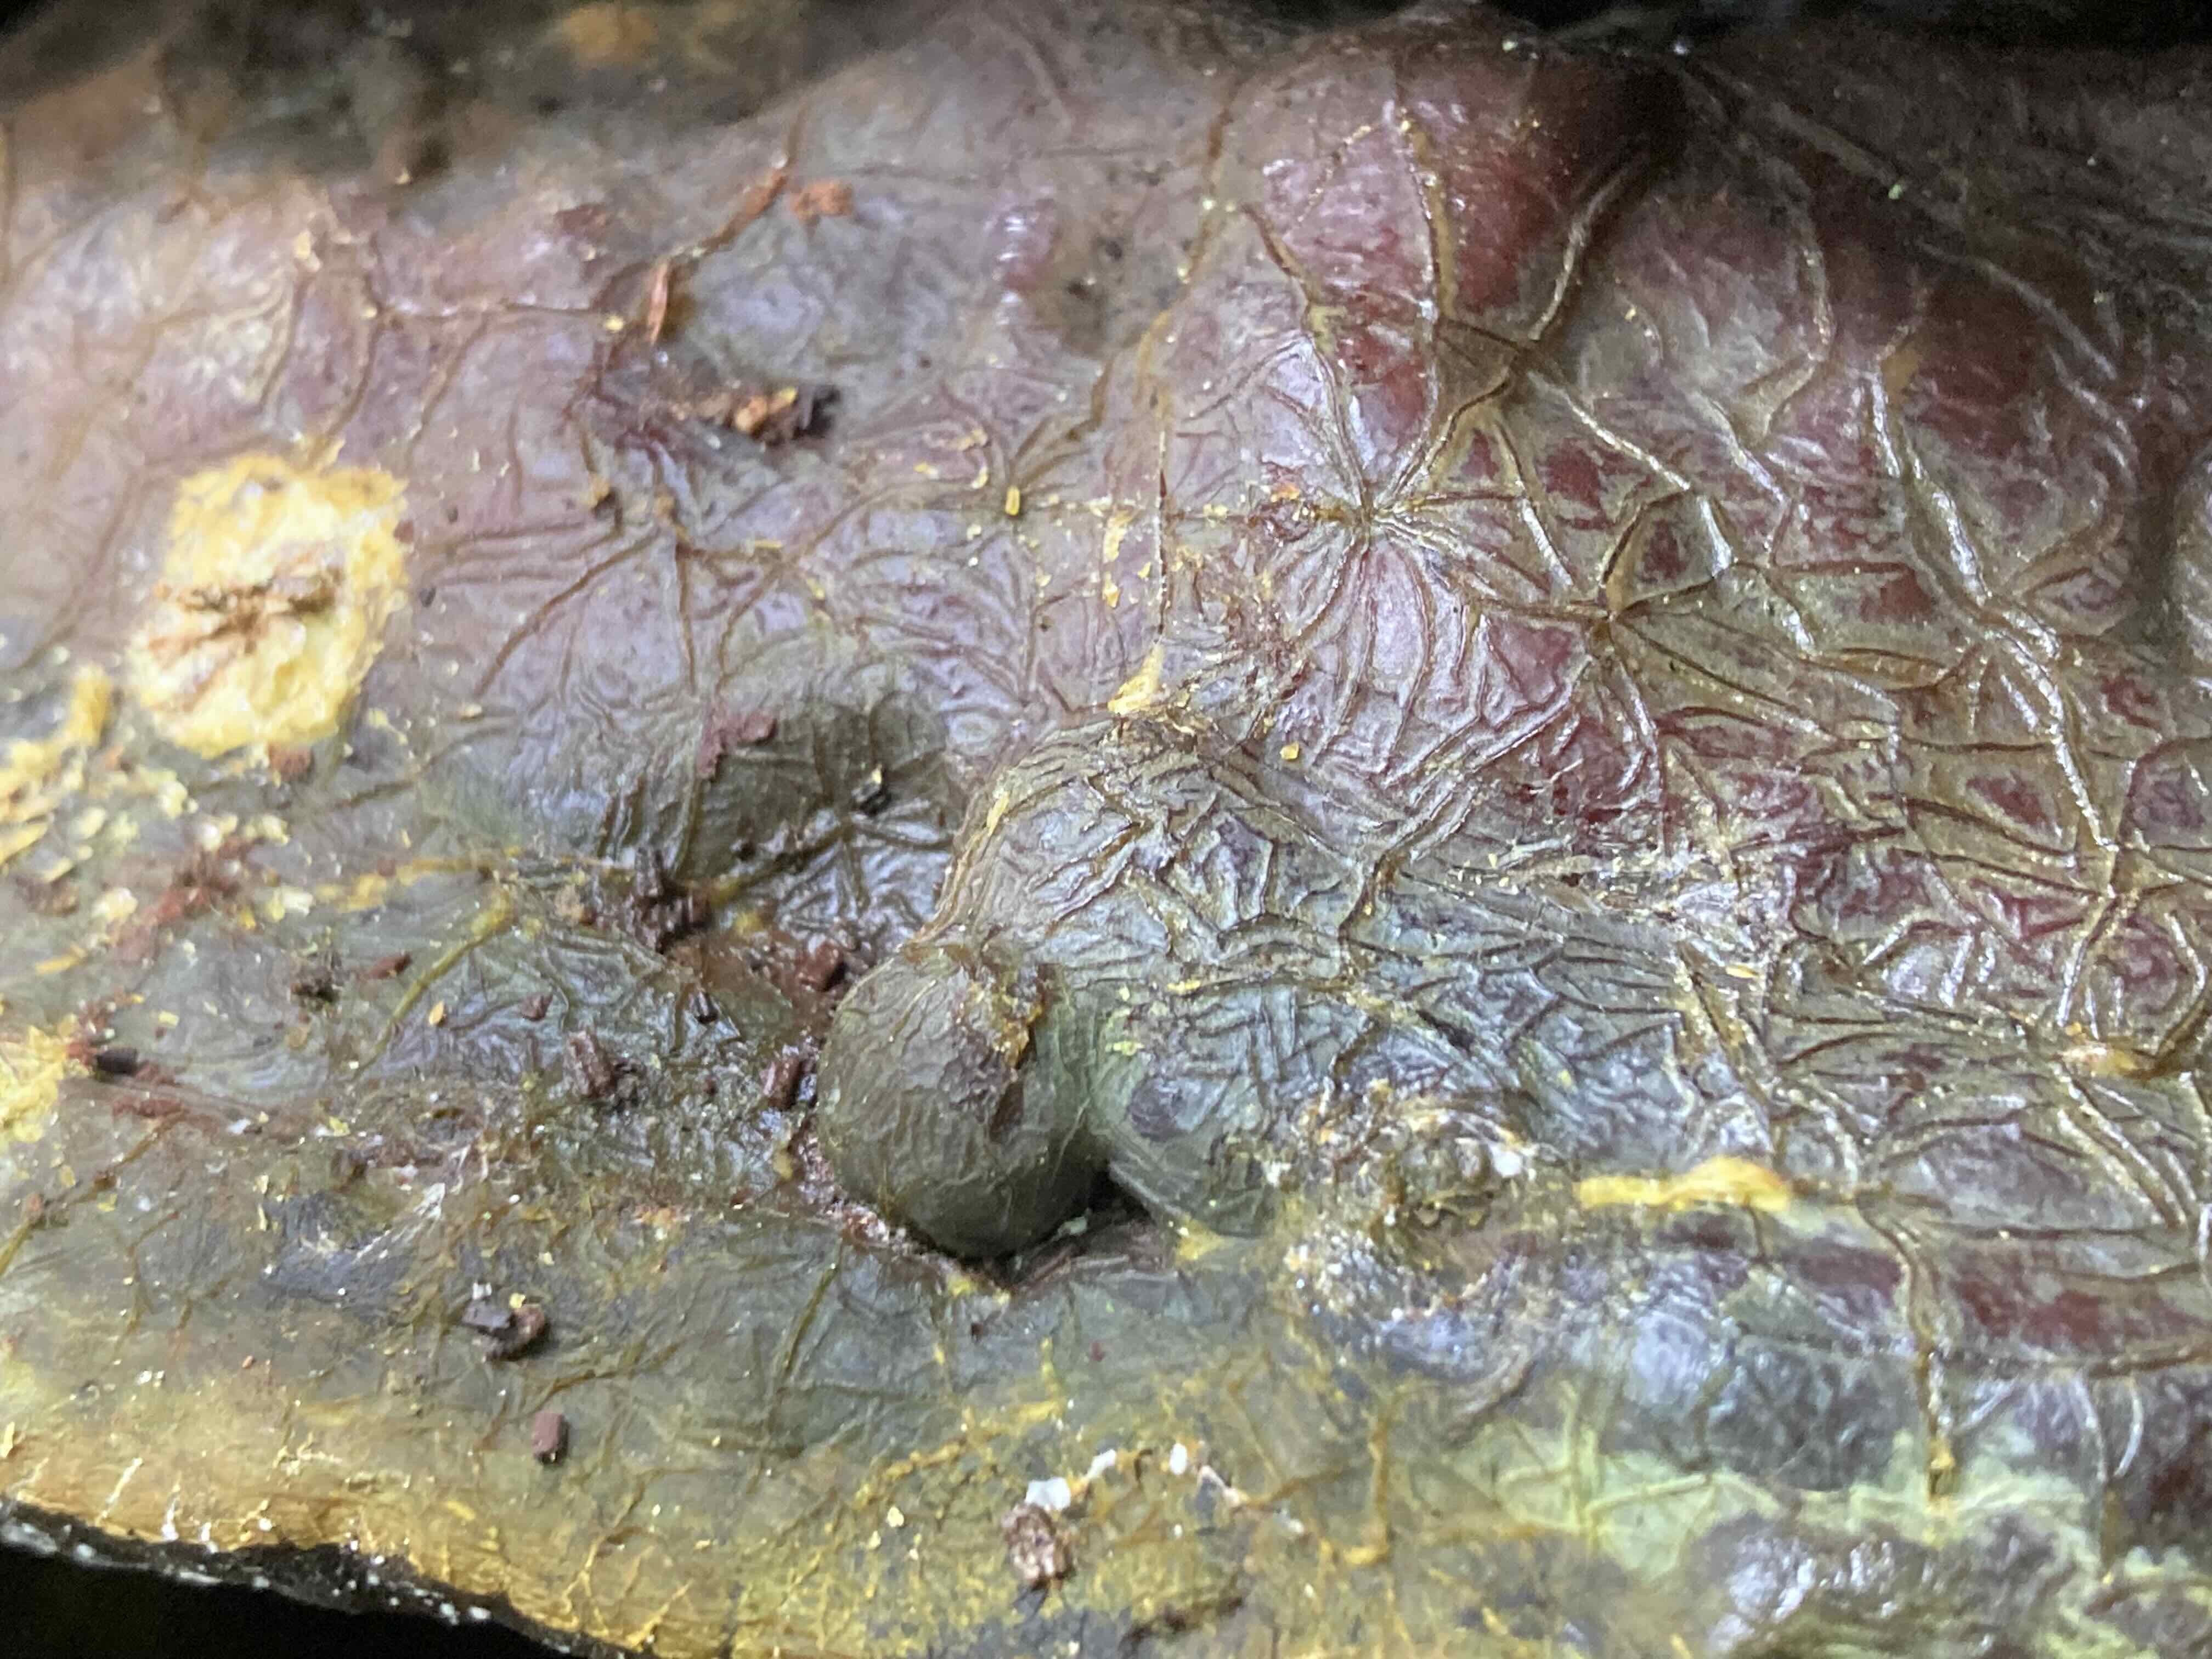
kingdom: Fungi
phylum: Basidiomycota
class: Agaricomycetes
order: Polyporales
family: Polyporaceae
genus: Ganoderma
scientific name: Ganoderma pfeifferi
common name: kobberrød lakporesvamp
